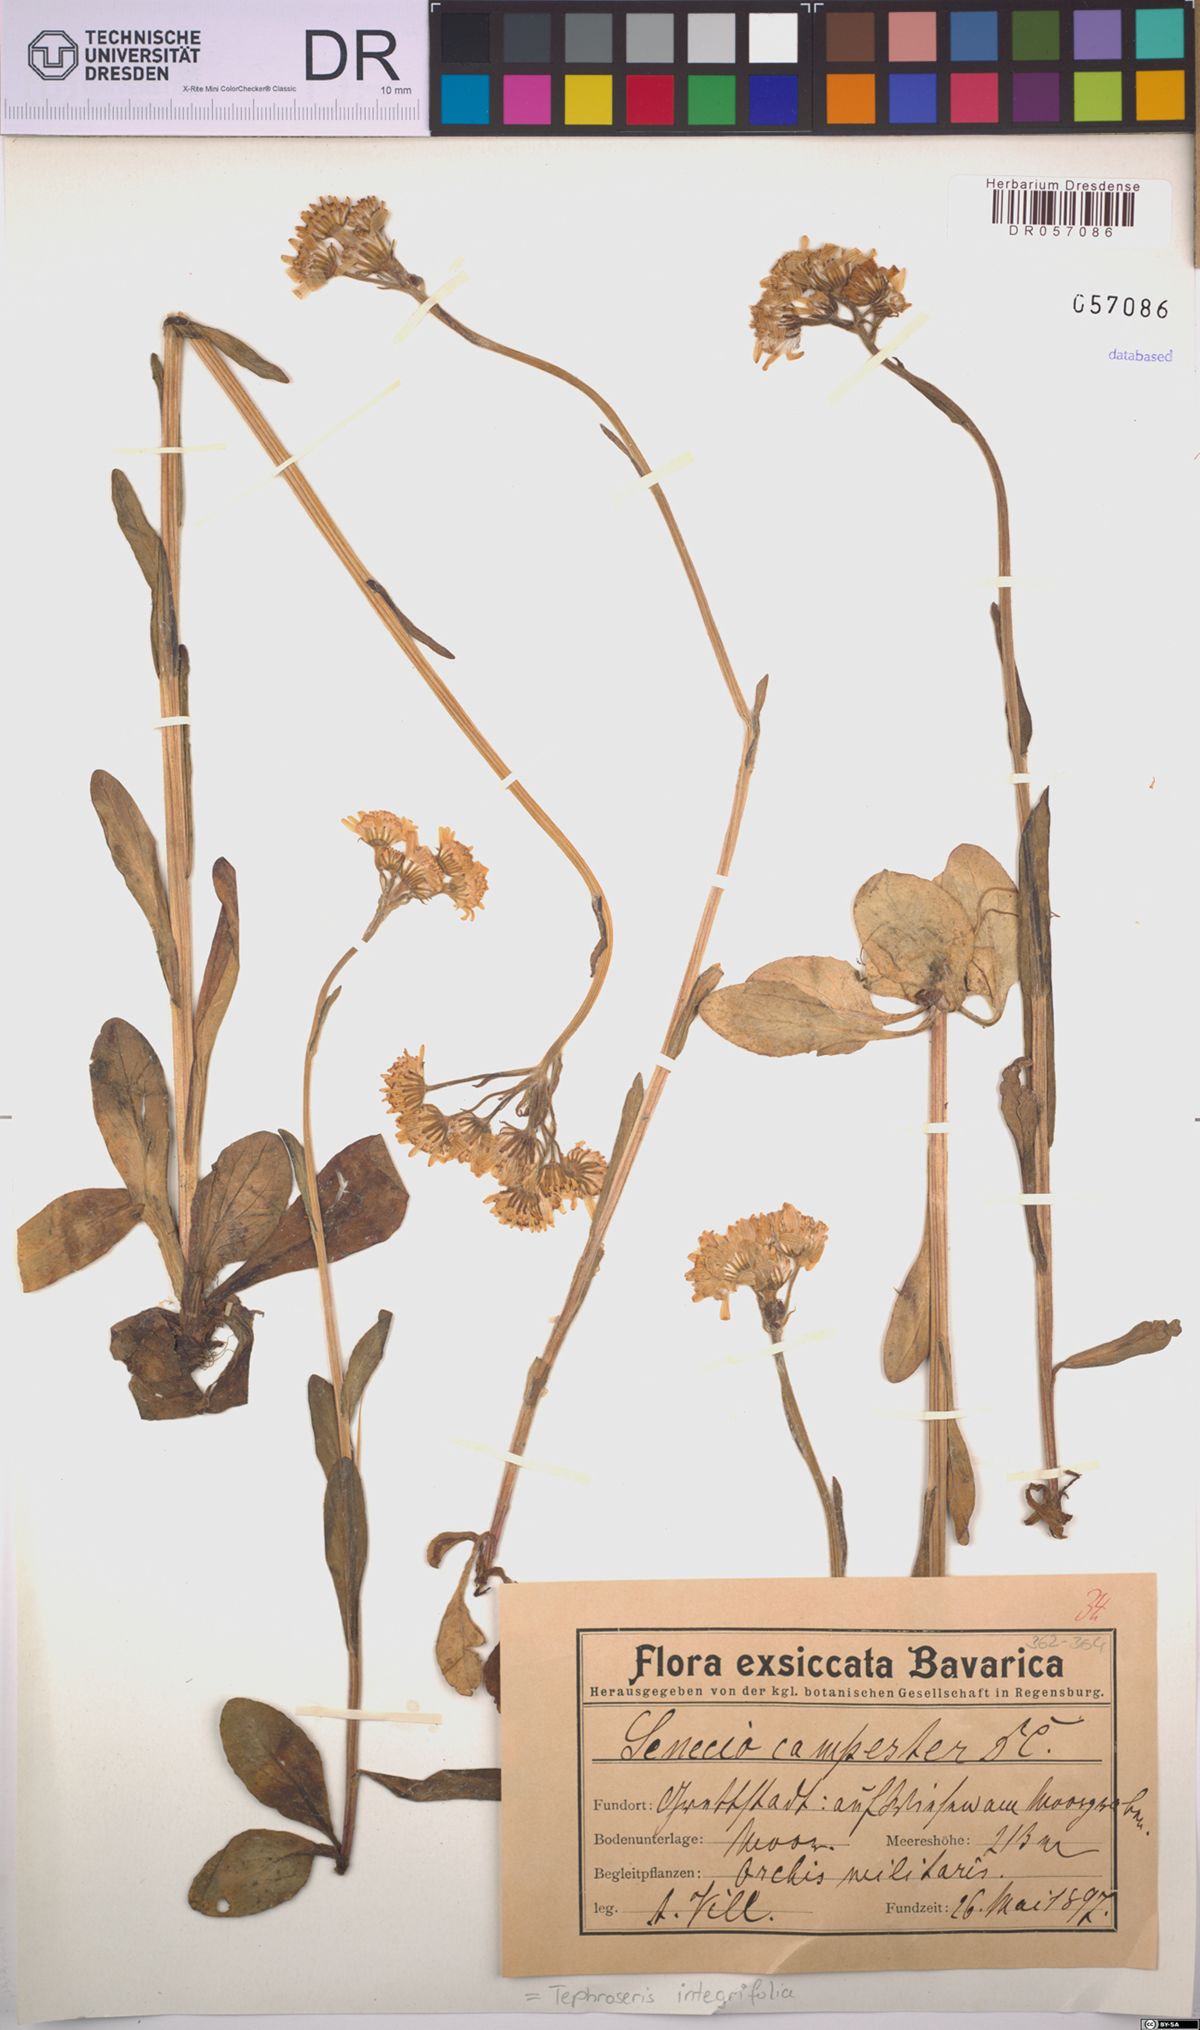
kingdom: Plantae
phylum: Tracheophyta
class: Magnoliopsida
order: Asterales
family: Asteraceae
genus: Tephroseris
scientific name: Tephroseris integrifolia
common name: Field fleawort
